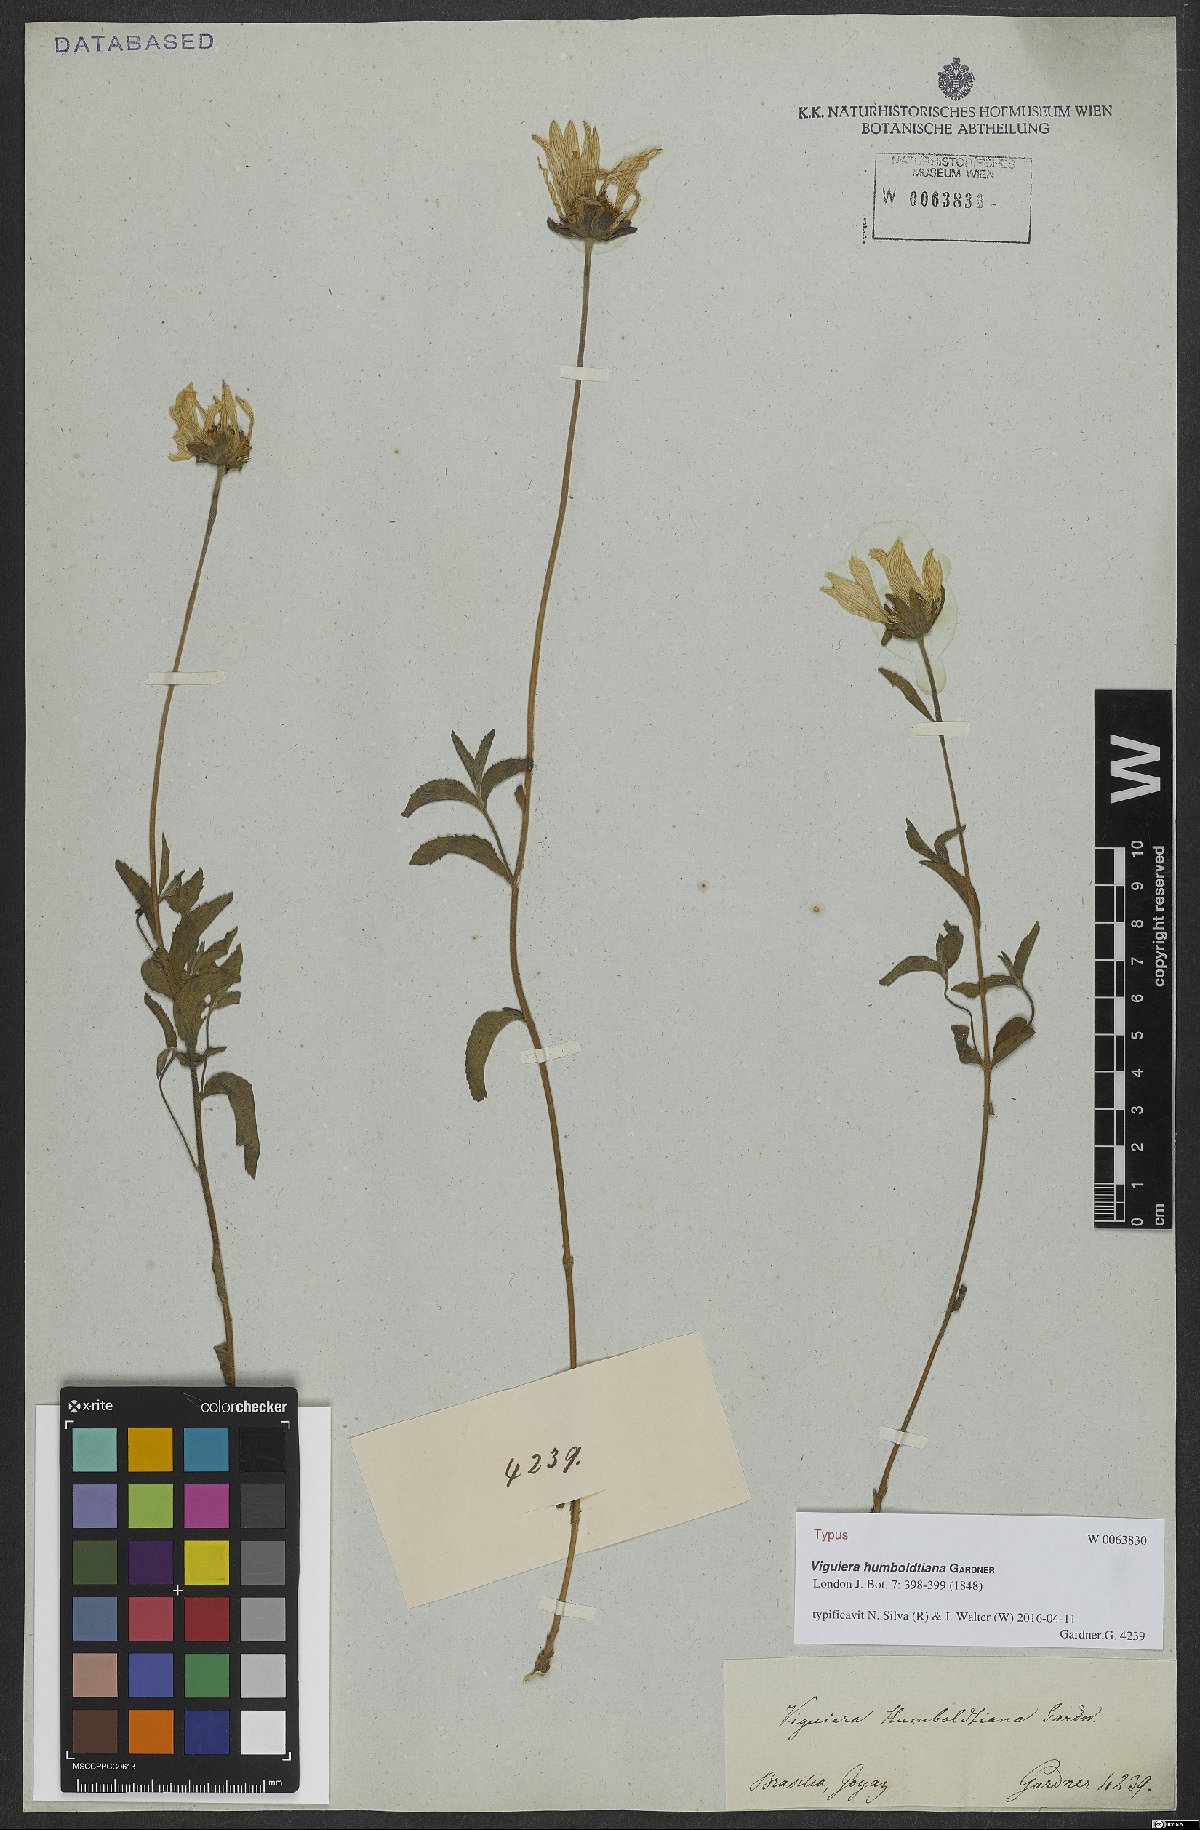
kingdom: Plantae
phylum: Tracheophyta
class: Magnoliopsida
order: Asterales
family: Asteraceae
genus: Dimerostemma
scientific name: Dimerostemma humboldtianum
